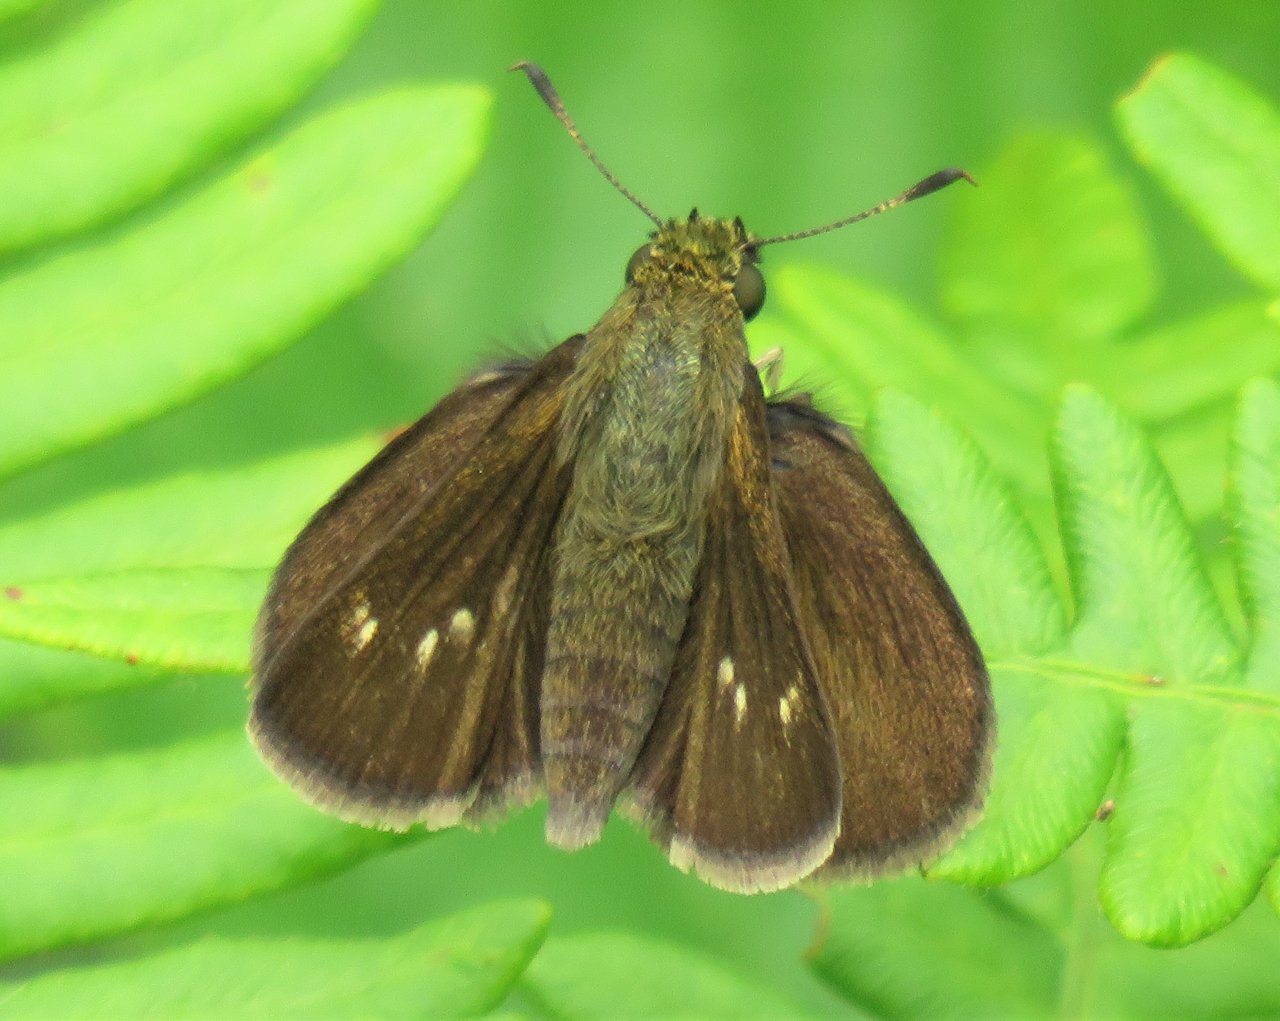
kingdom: Animalia
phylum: Arthropoda
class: Insecta
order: Lepidoptera
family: Hesperiidae
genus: Euphyes
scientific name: Euphyes vestris
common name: Dun Skipper
